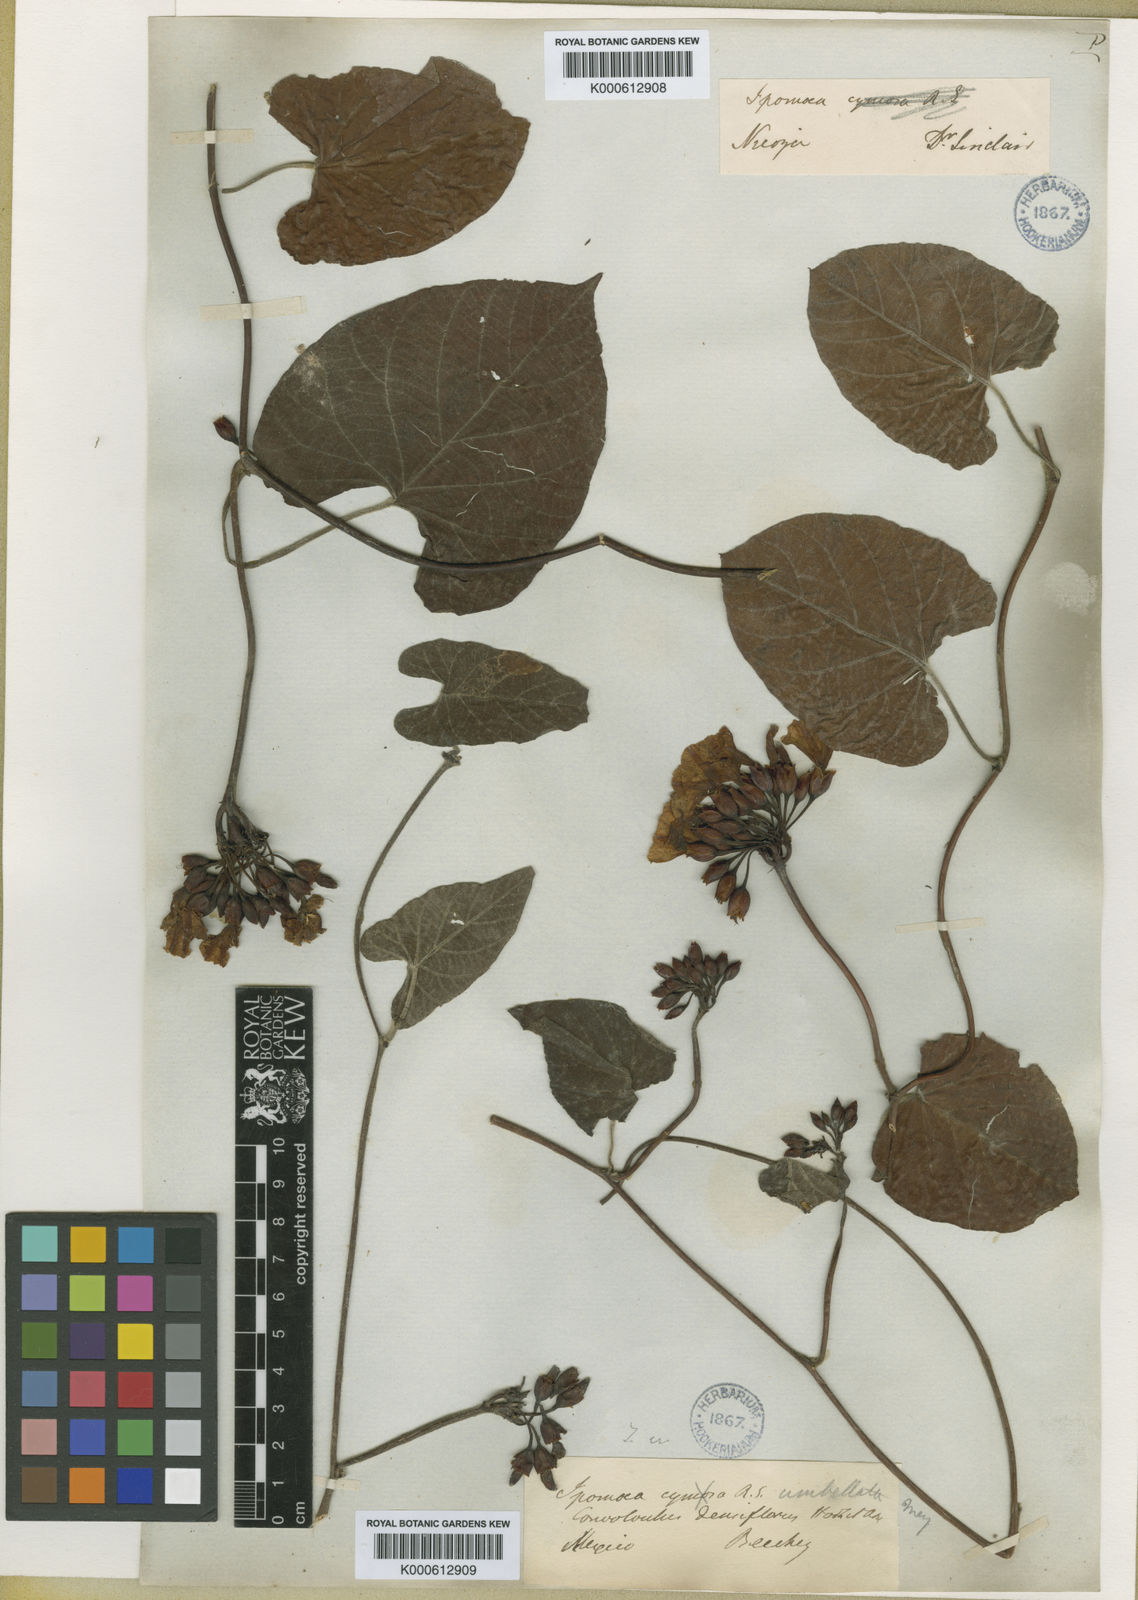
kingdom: Plantae
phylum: Tracheophyta
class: Magnoliopsida
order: Solanales
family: Convolvulaceae
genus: Camonea
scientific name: Camonea umbellata
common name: Hogvine
